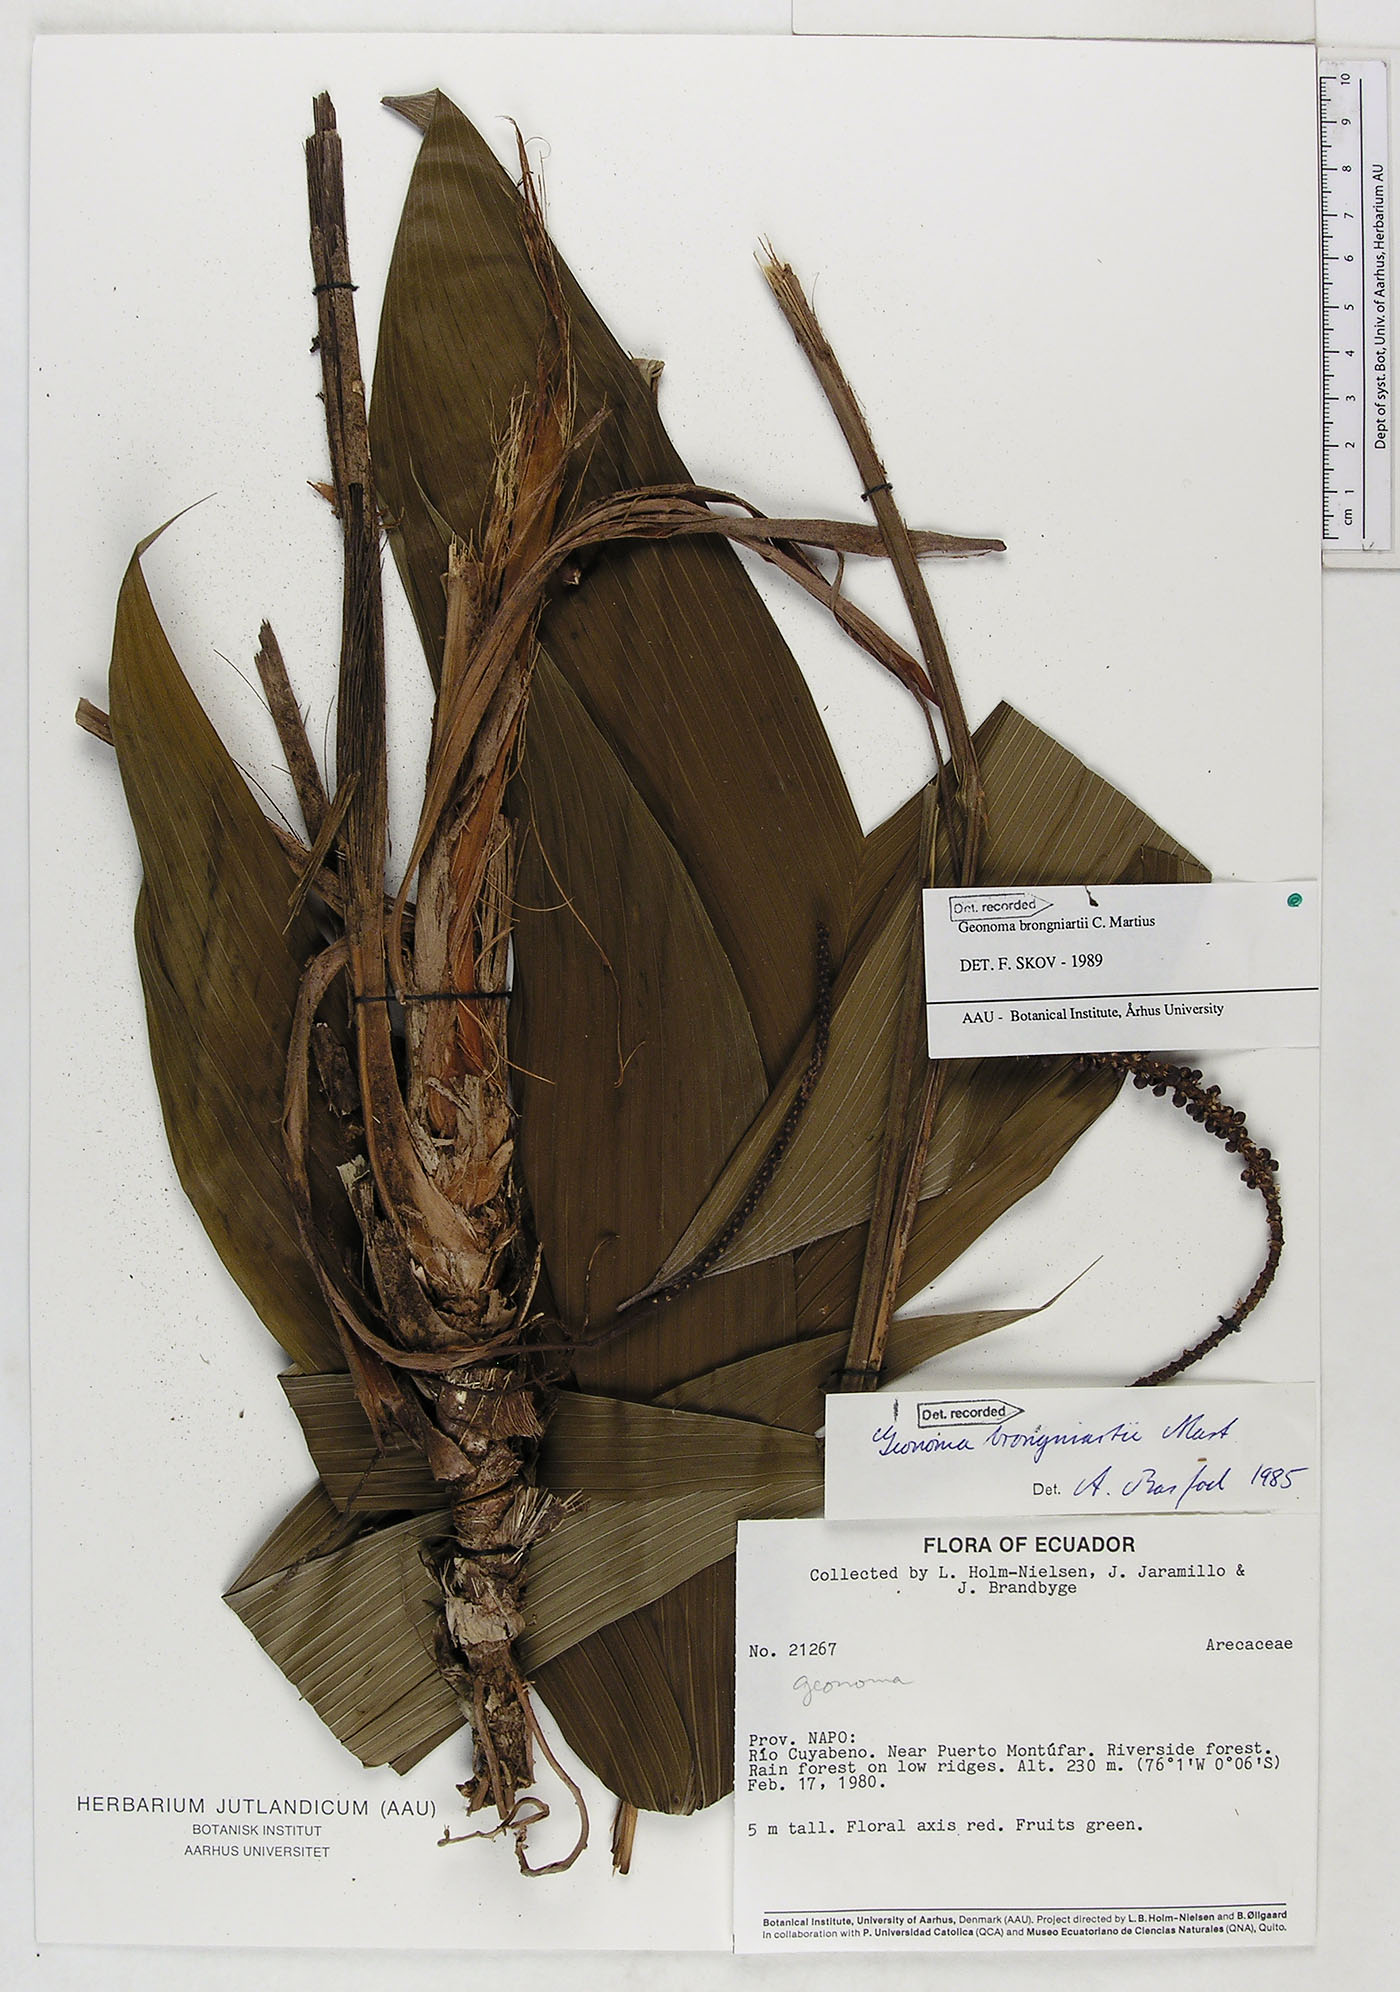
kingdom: Plantae
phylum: Tracheophyta
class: Liliopsida
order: Arecales
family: Arecaceae
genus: Geonoma
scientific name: Geonoma brongniartii
